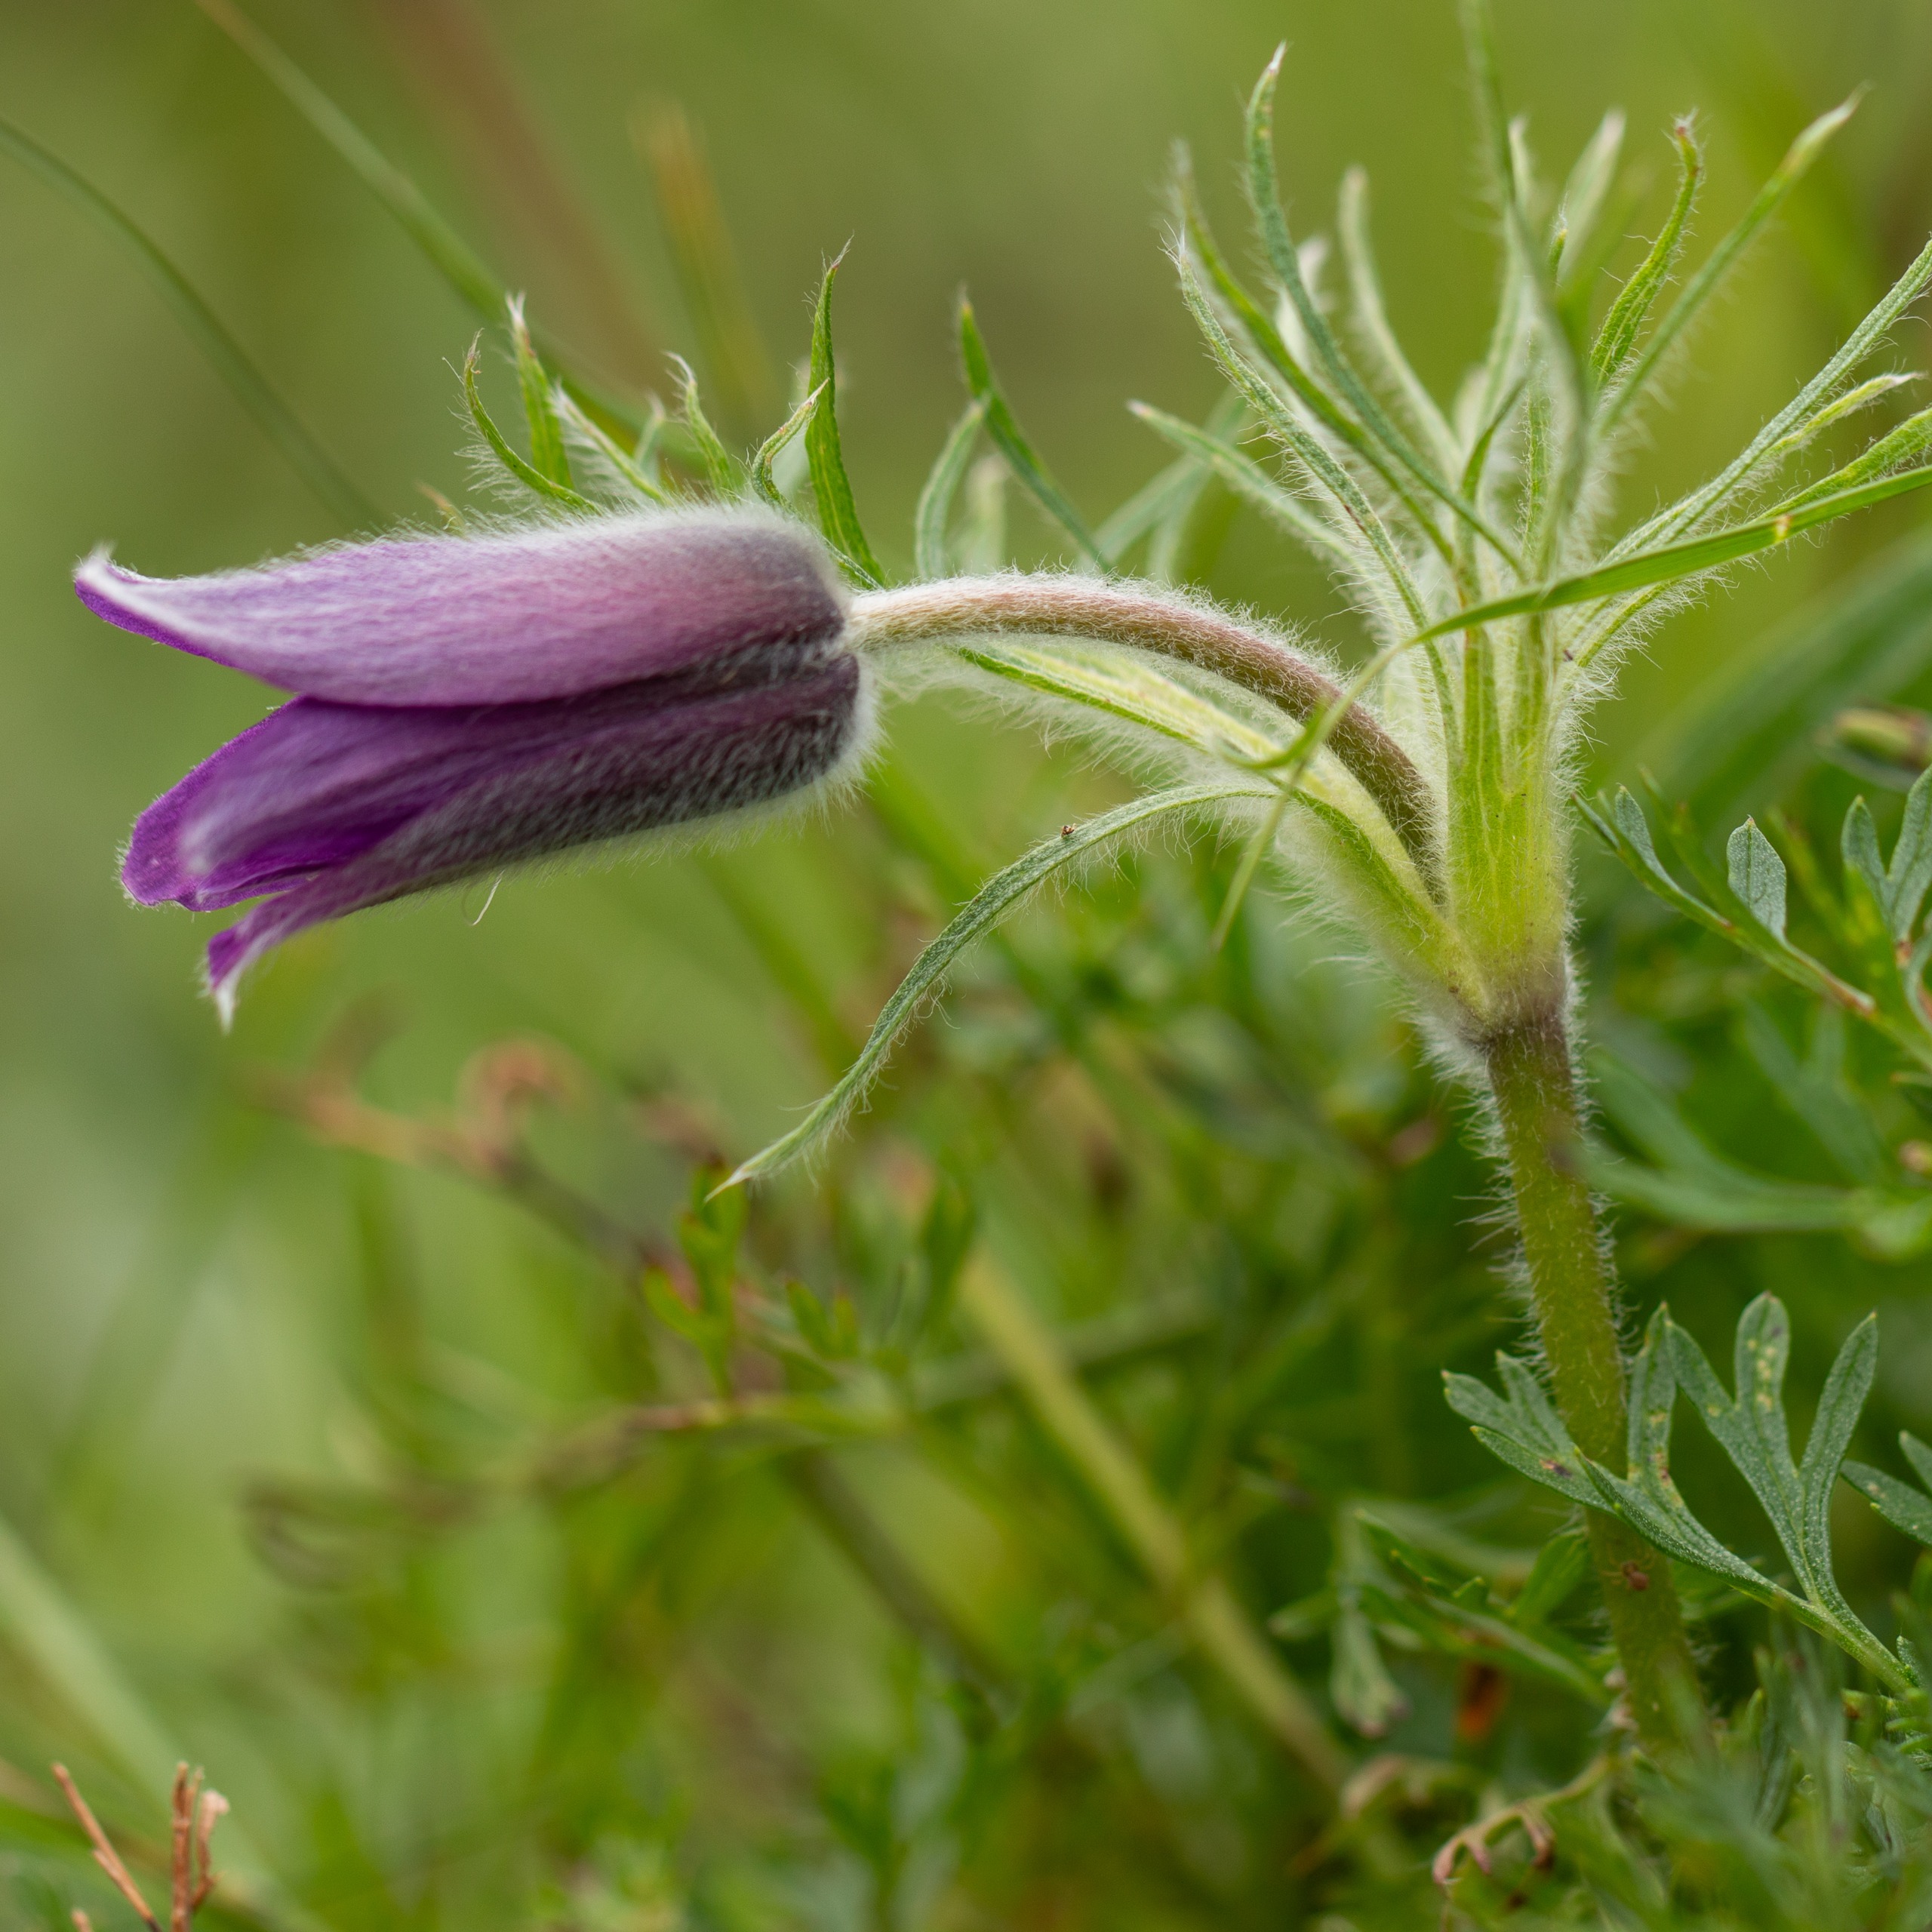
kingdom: Plantae
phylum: Tracheophyta
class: Magnoliopsida
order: Ranunculales
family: Ranunculaceae
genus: Pulsatilla
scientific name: Pulsatilla vulgaris
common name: Opret kobjælde
